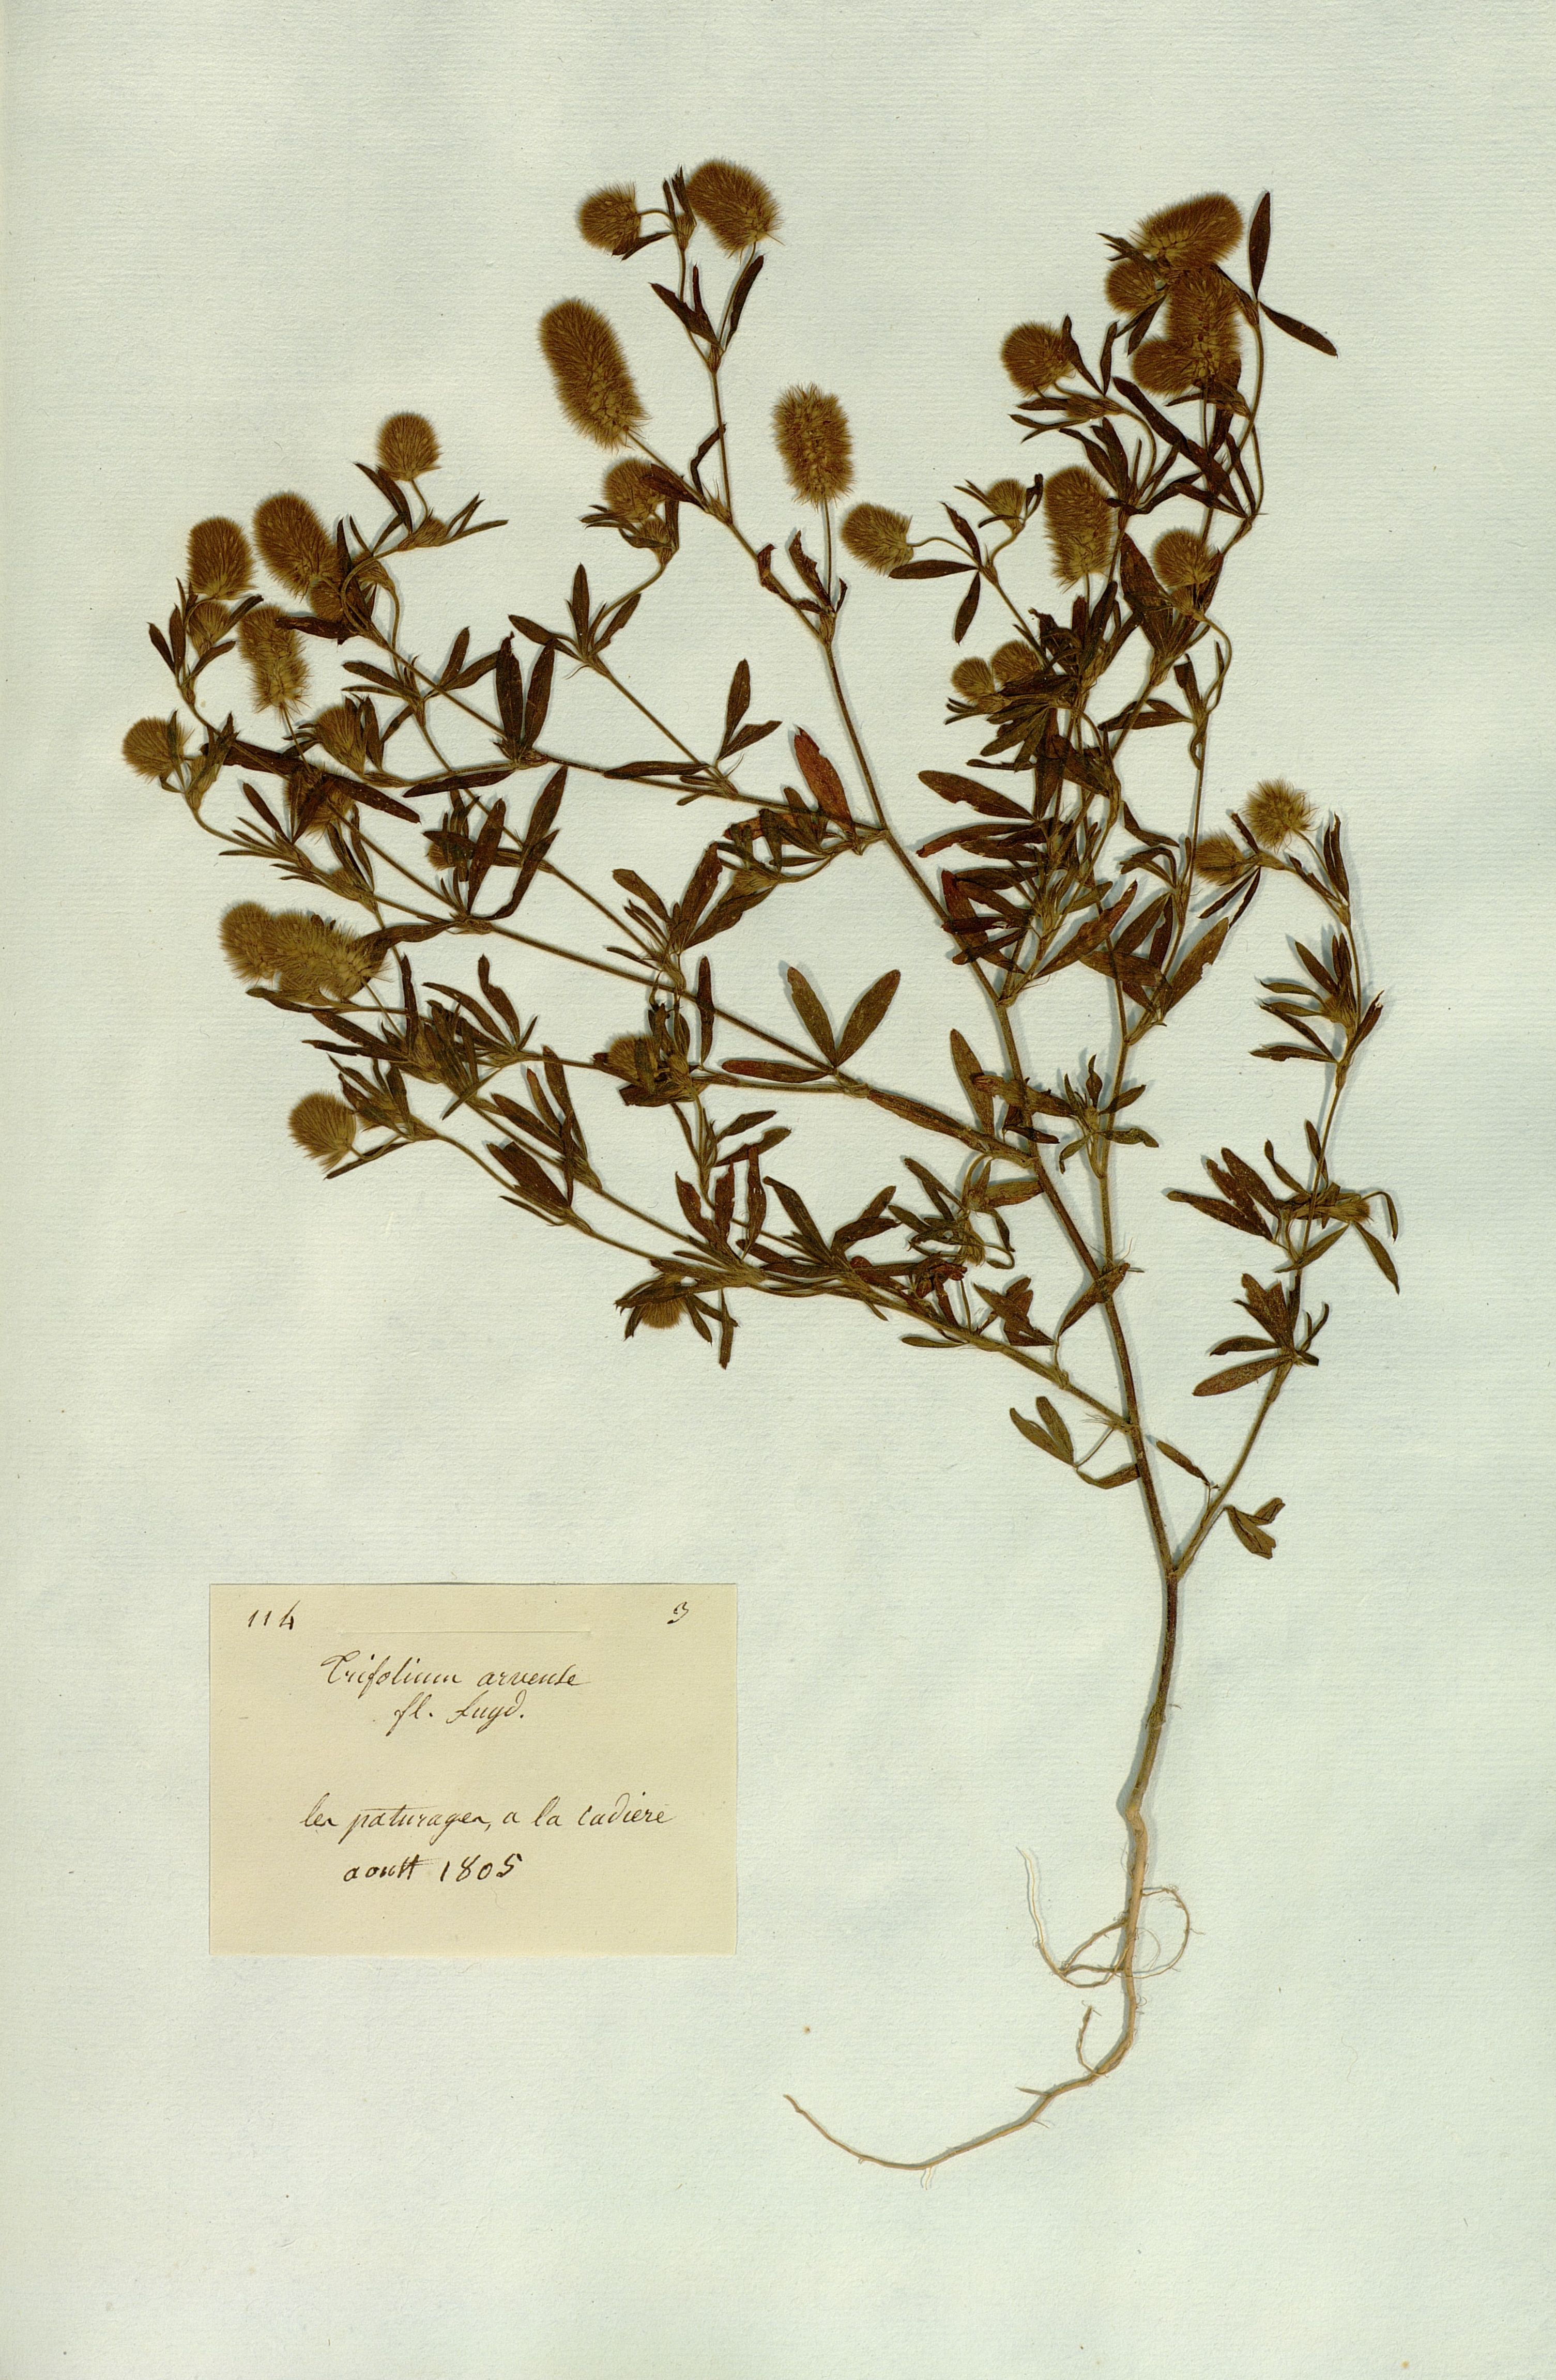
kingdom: Plantae
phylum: Tracheophyta
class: Magnoliopsida
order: Fabales
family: Fabaceae
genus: Trifolium
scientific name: Trifolium arvense
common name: Hare's-foot clover
